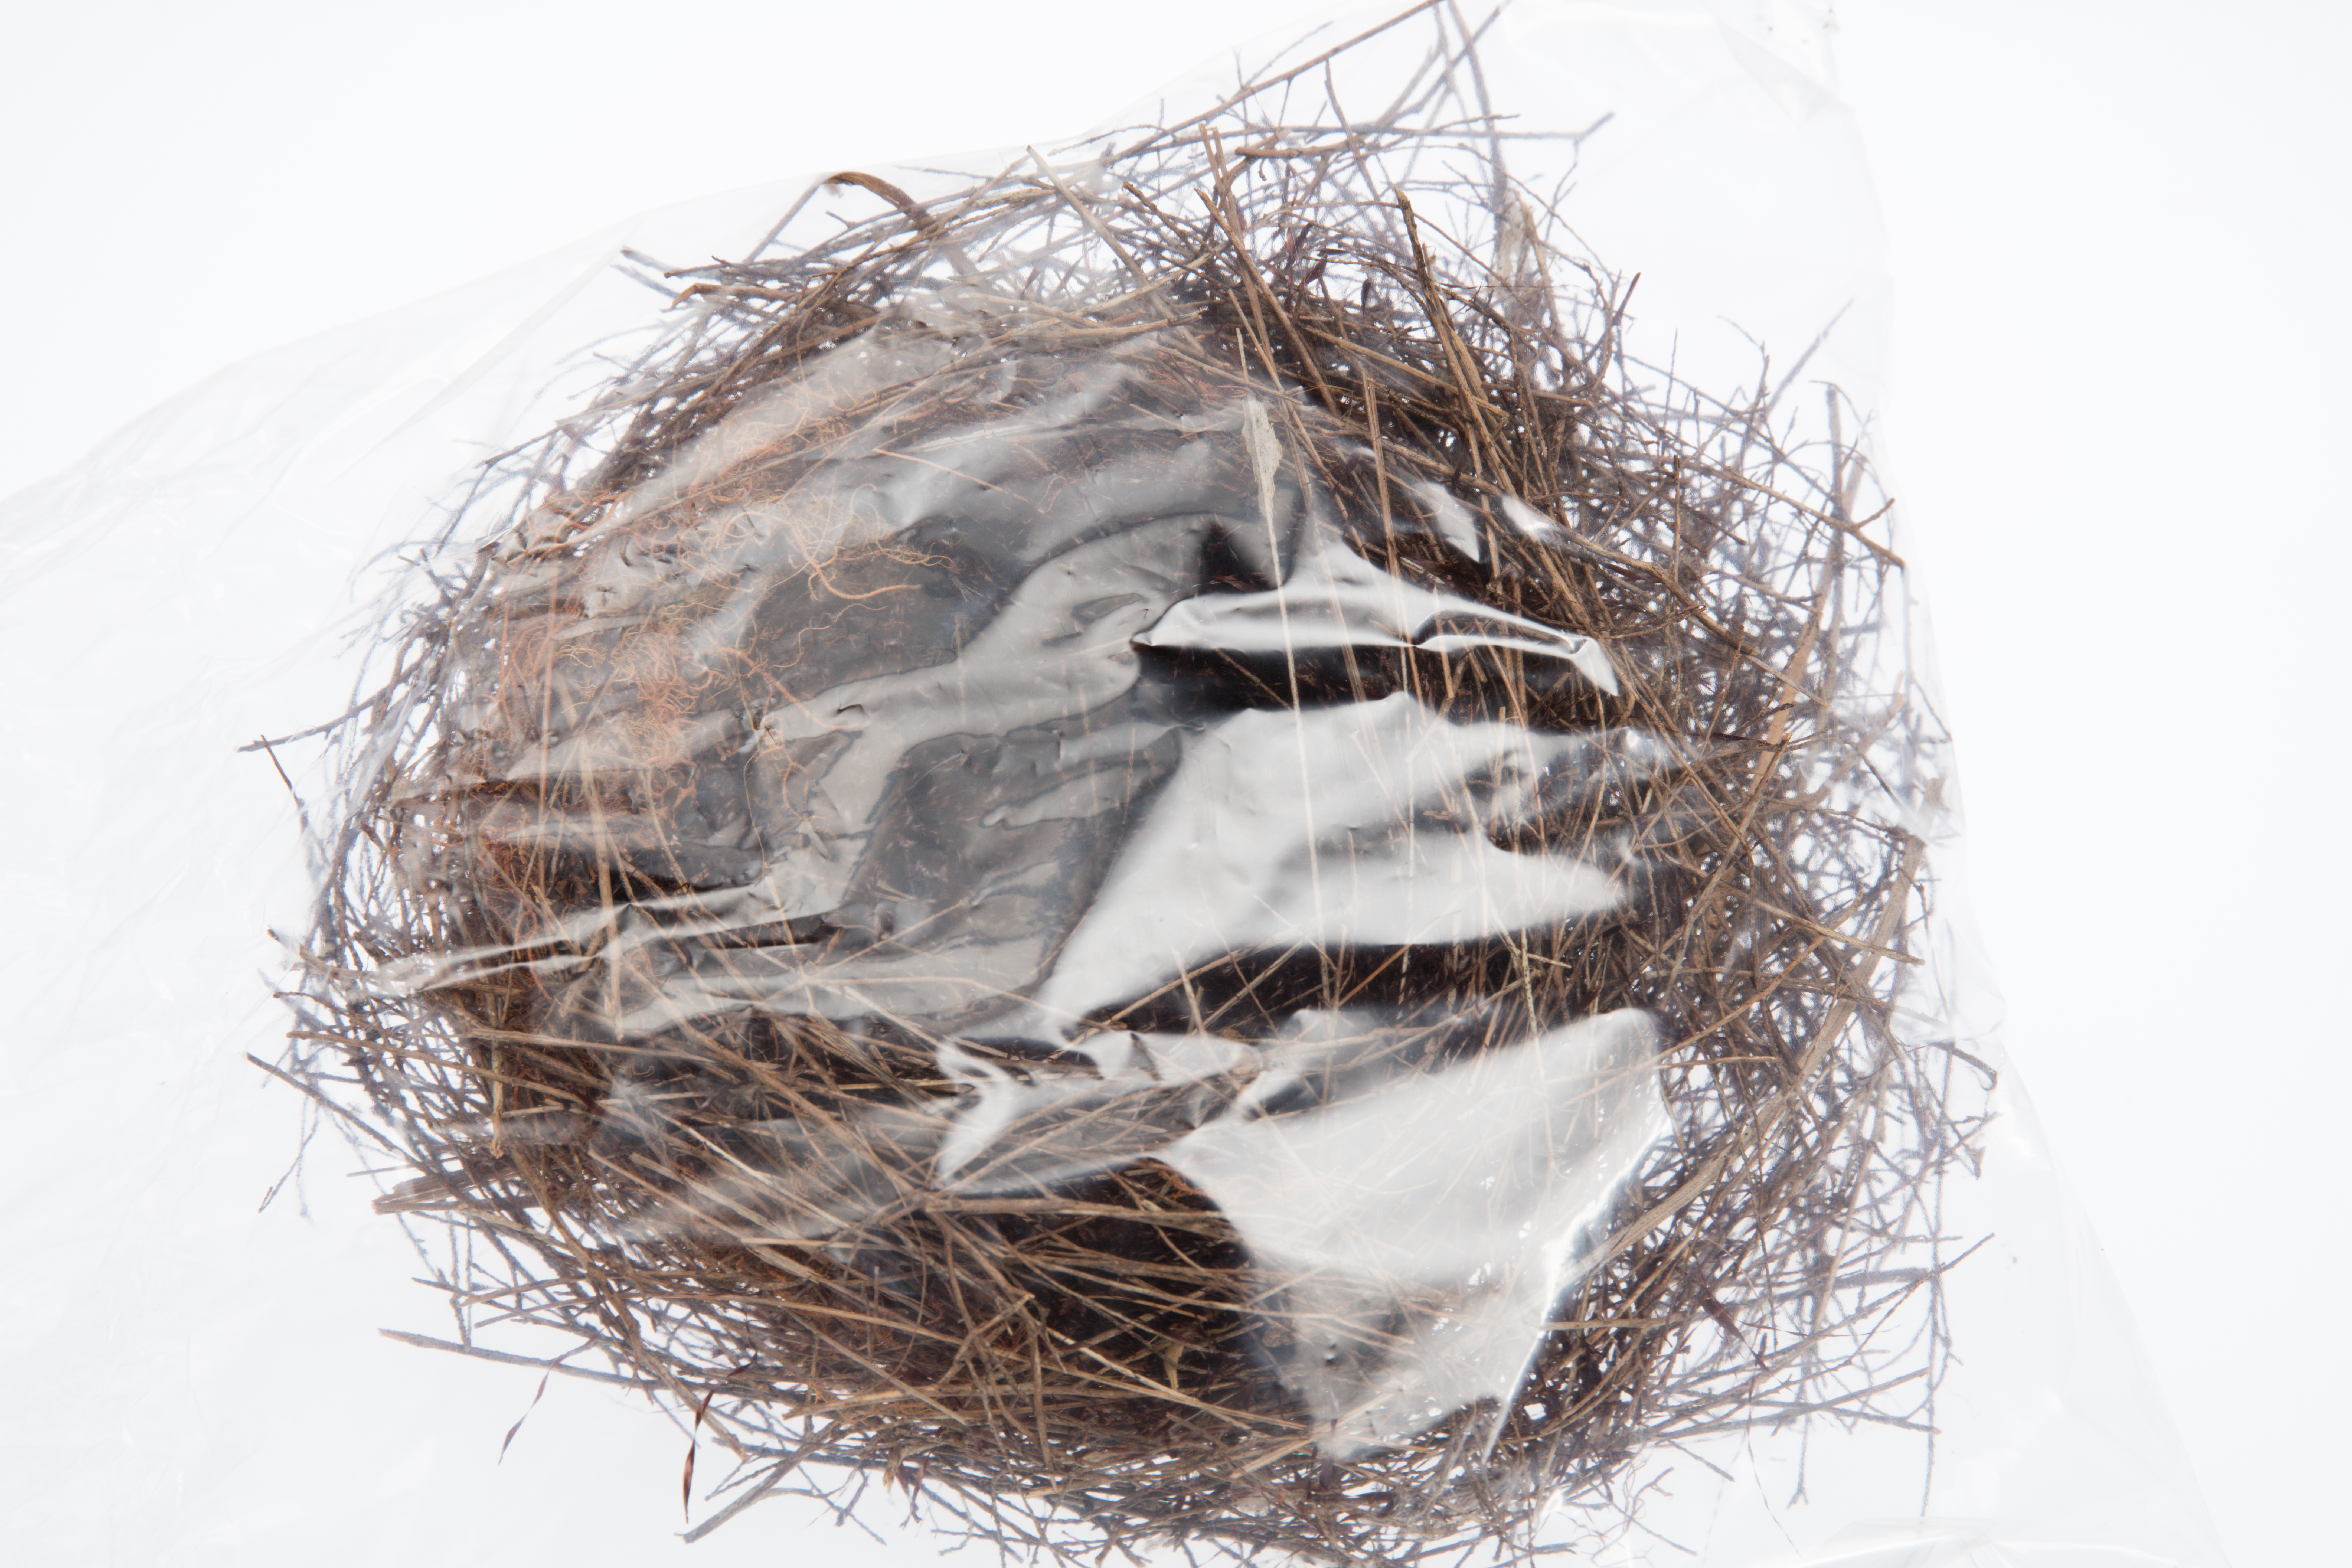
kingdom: Animalia
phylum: Chordata
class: Aves
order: Passeriformes
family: Meliphagidae
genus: Prosthemadera
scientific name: Prosthemadera novaeseelandiae
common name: Tui
